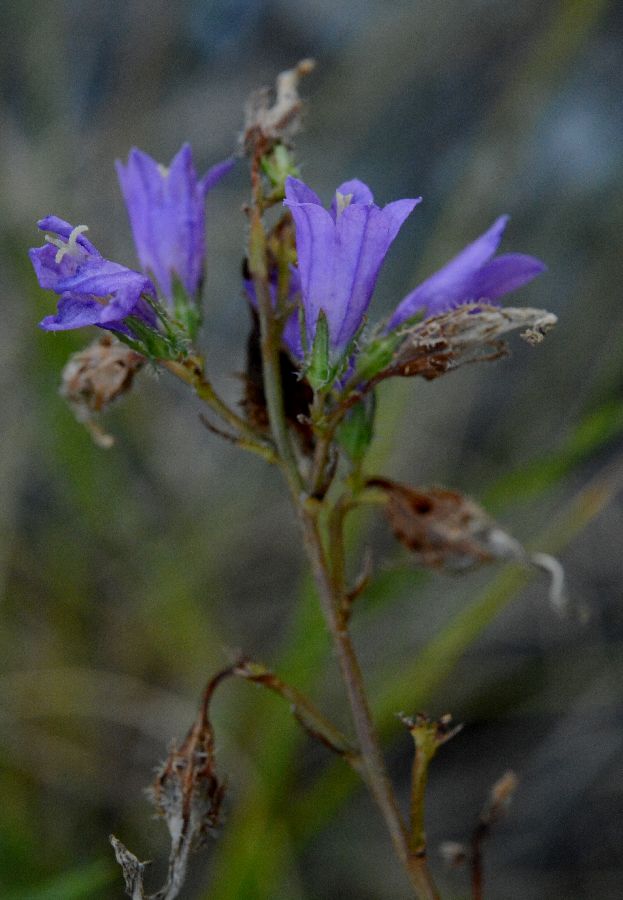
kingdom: Plantae
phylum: Tracheophyta
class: Magnoliopsida
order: Asterales
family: Campanulaceae
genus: Campanula
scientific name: Campanula sibirica
